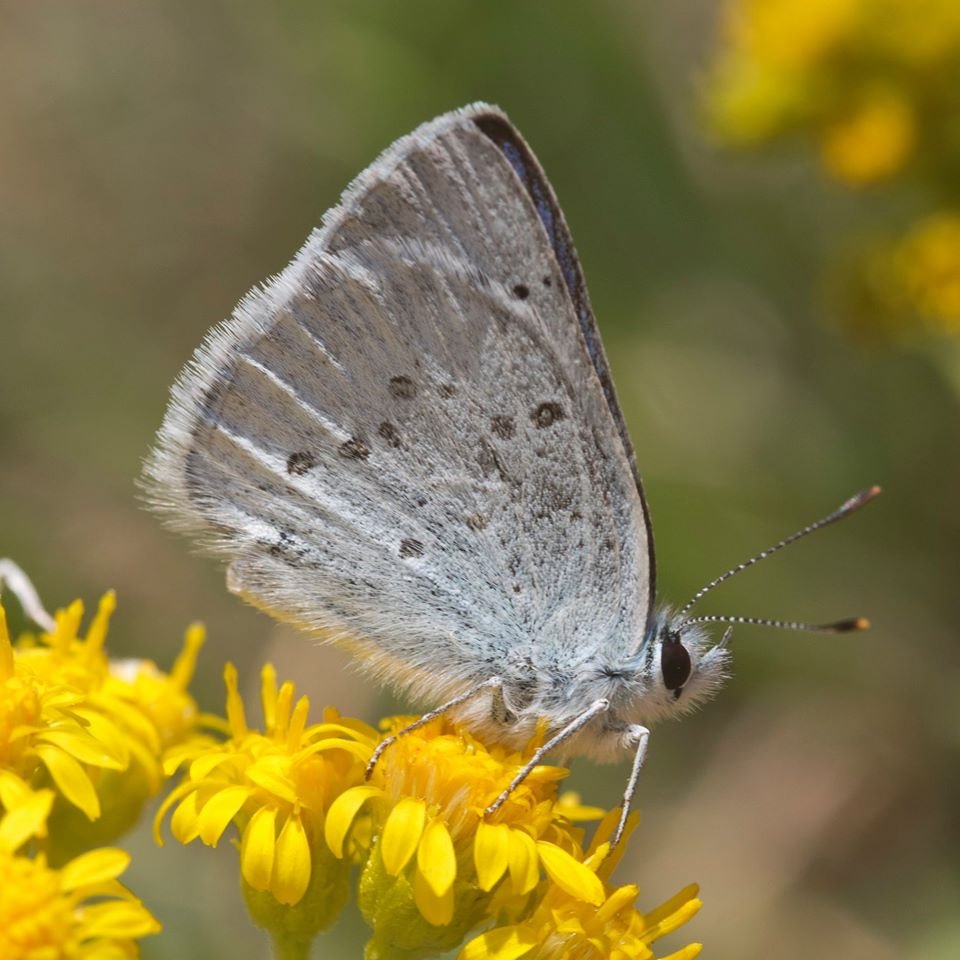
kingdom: Animalia
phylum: Arthropoda
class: Insecta
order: Lepidoptera
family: Lycaenidae
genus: Lycaena
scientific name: Lycaena heteronea
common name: Blue Copper
